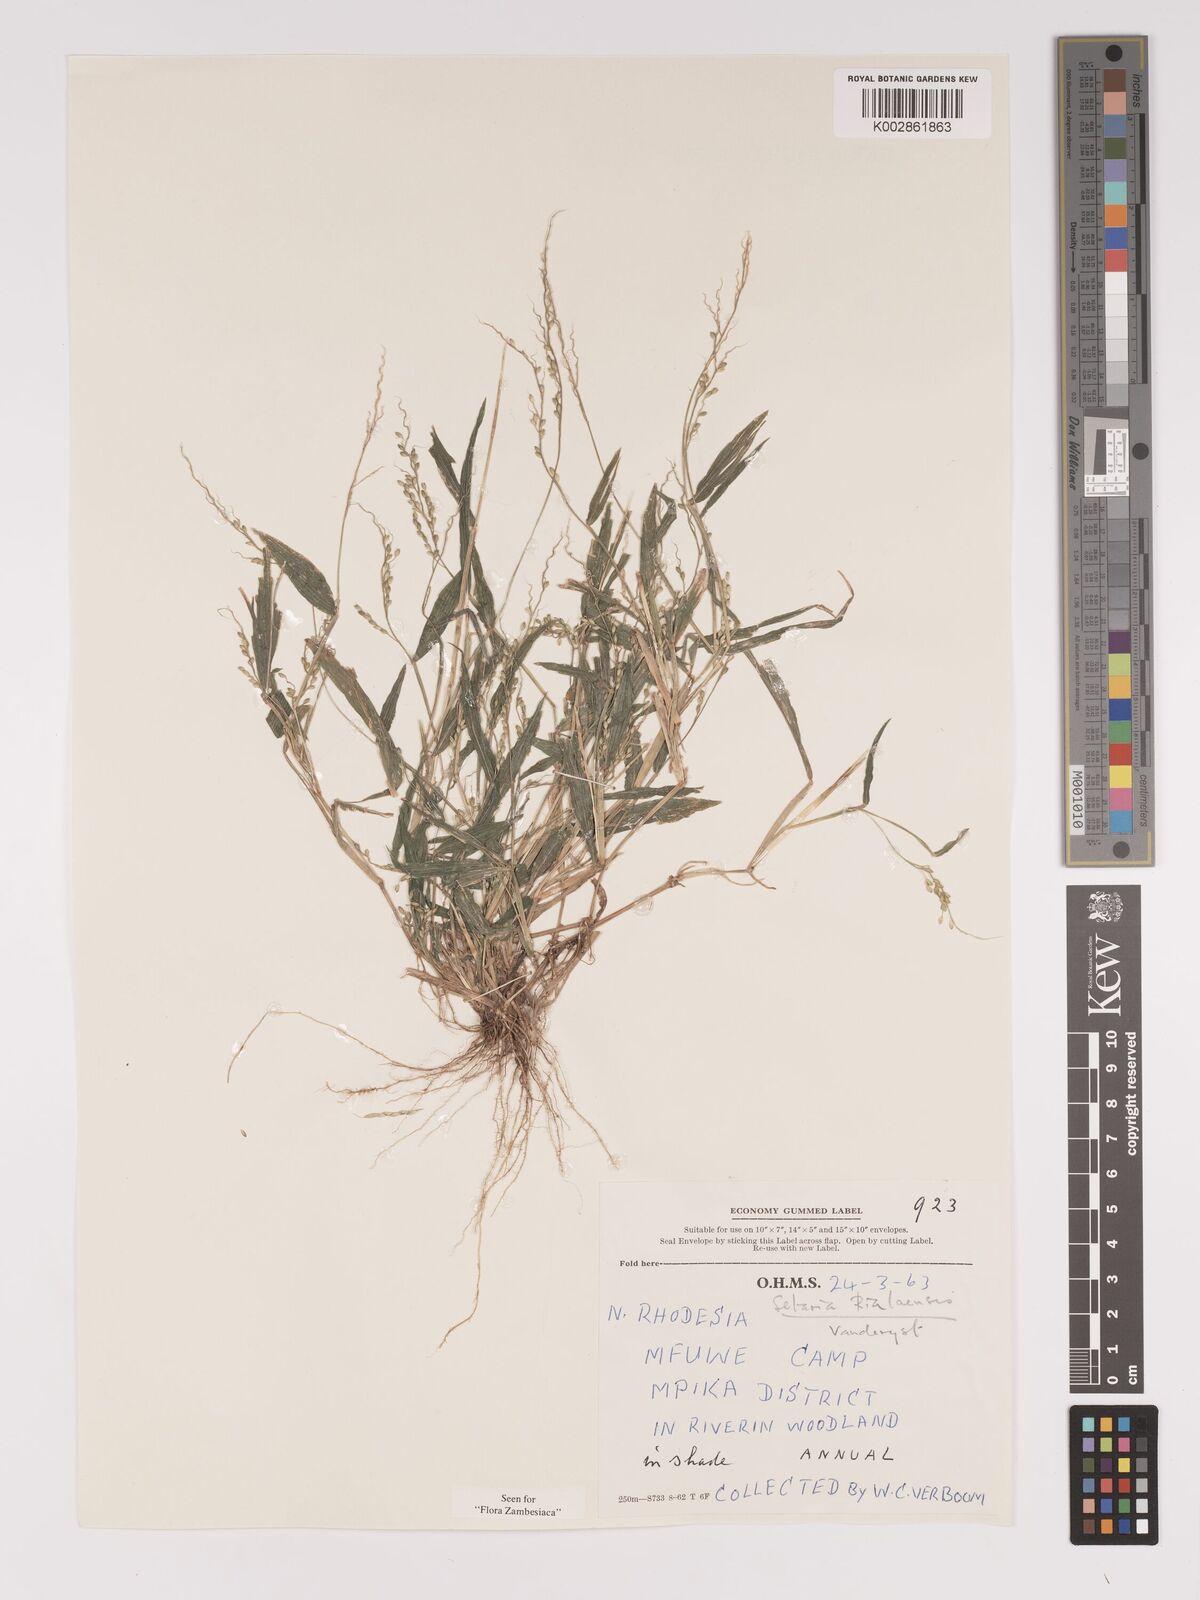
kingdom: Plantae
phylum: Tracheophyta
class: Liliopsida
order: Poales
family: Poaceae
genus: Setaria
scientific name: Setaria homonyma
